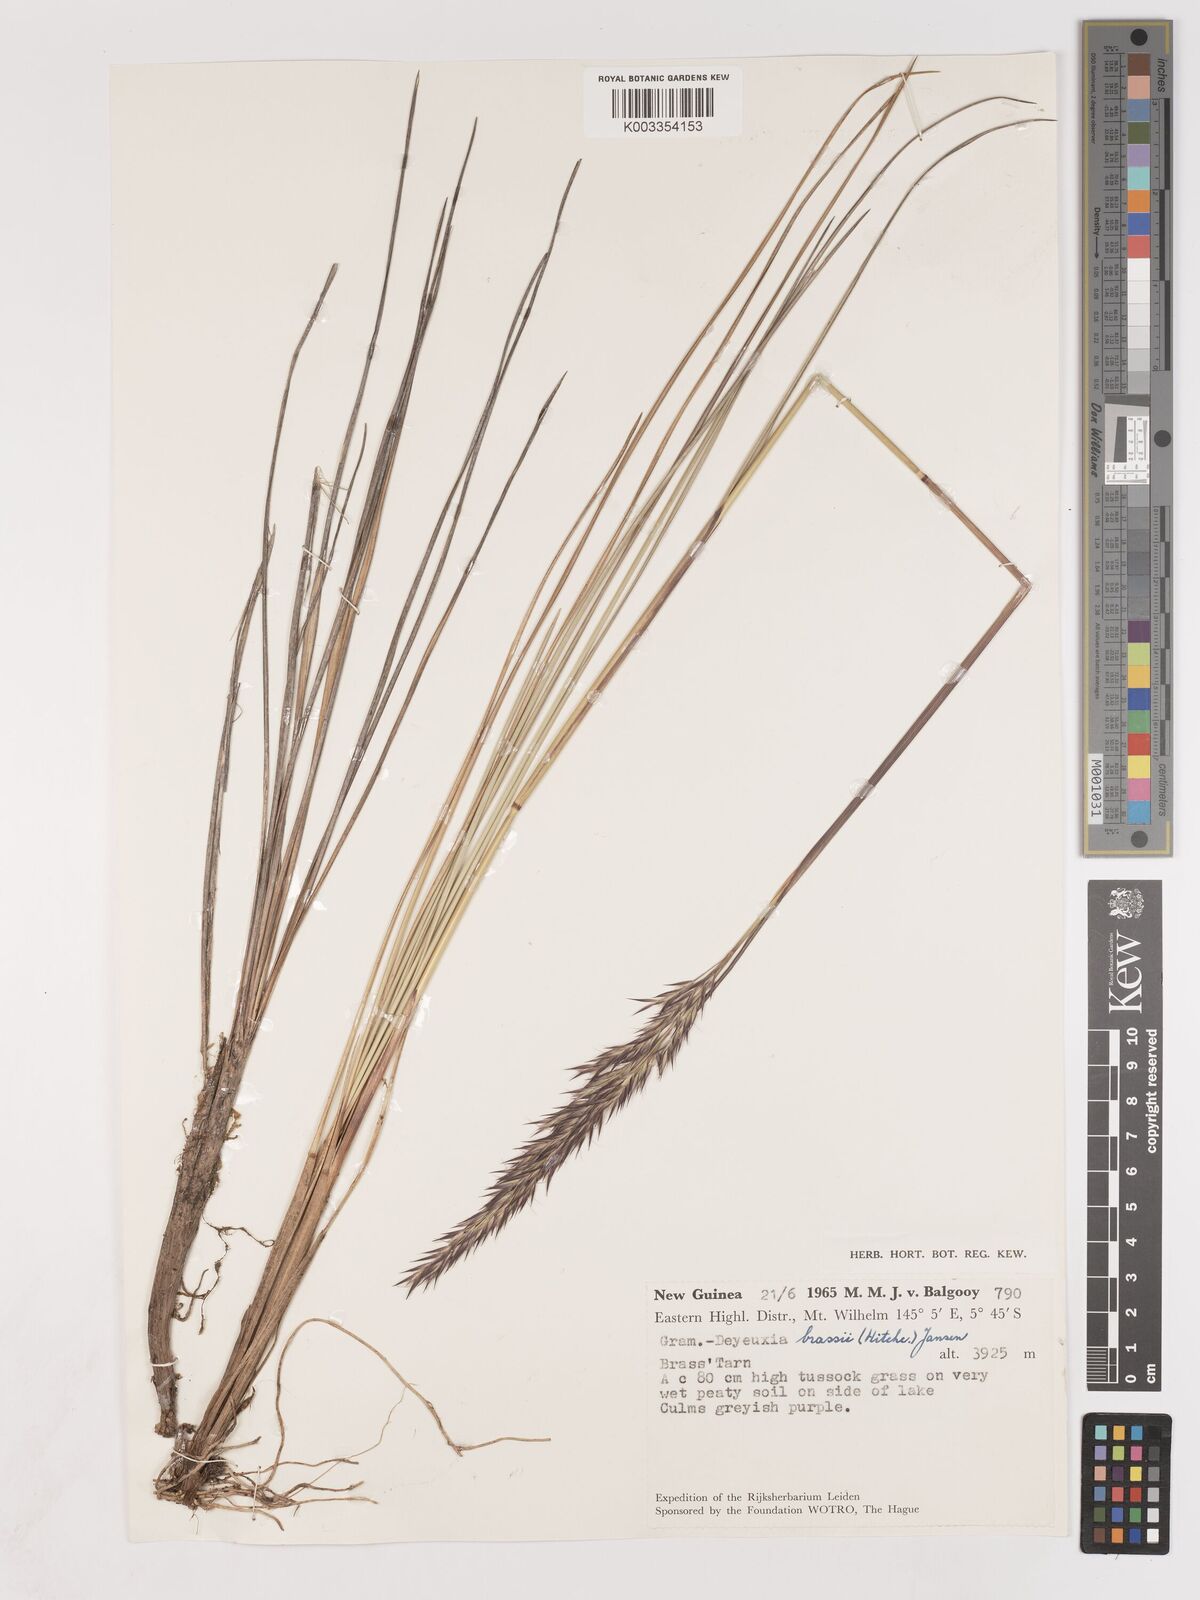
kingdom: Plantae
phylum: Tracheophyta
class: Liliopsida
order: Poales
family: Poaceae
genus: Calamagrostis
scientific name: Calamagrostis brassii
